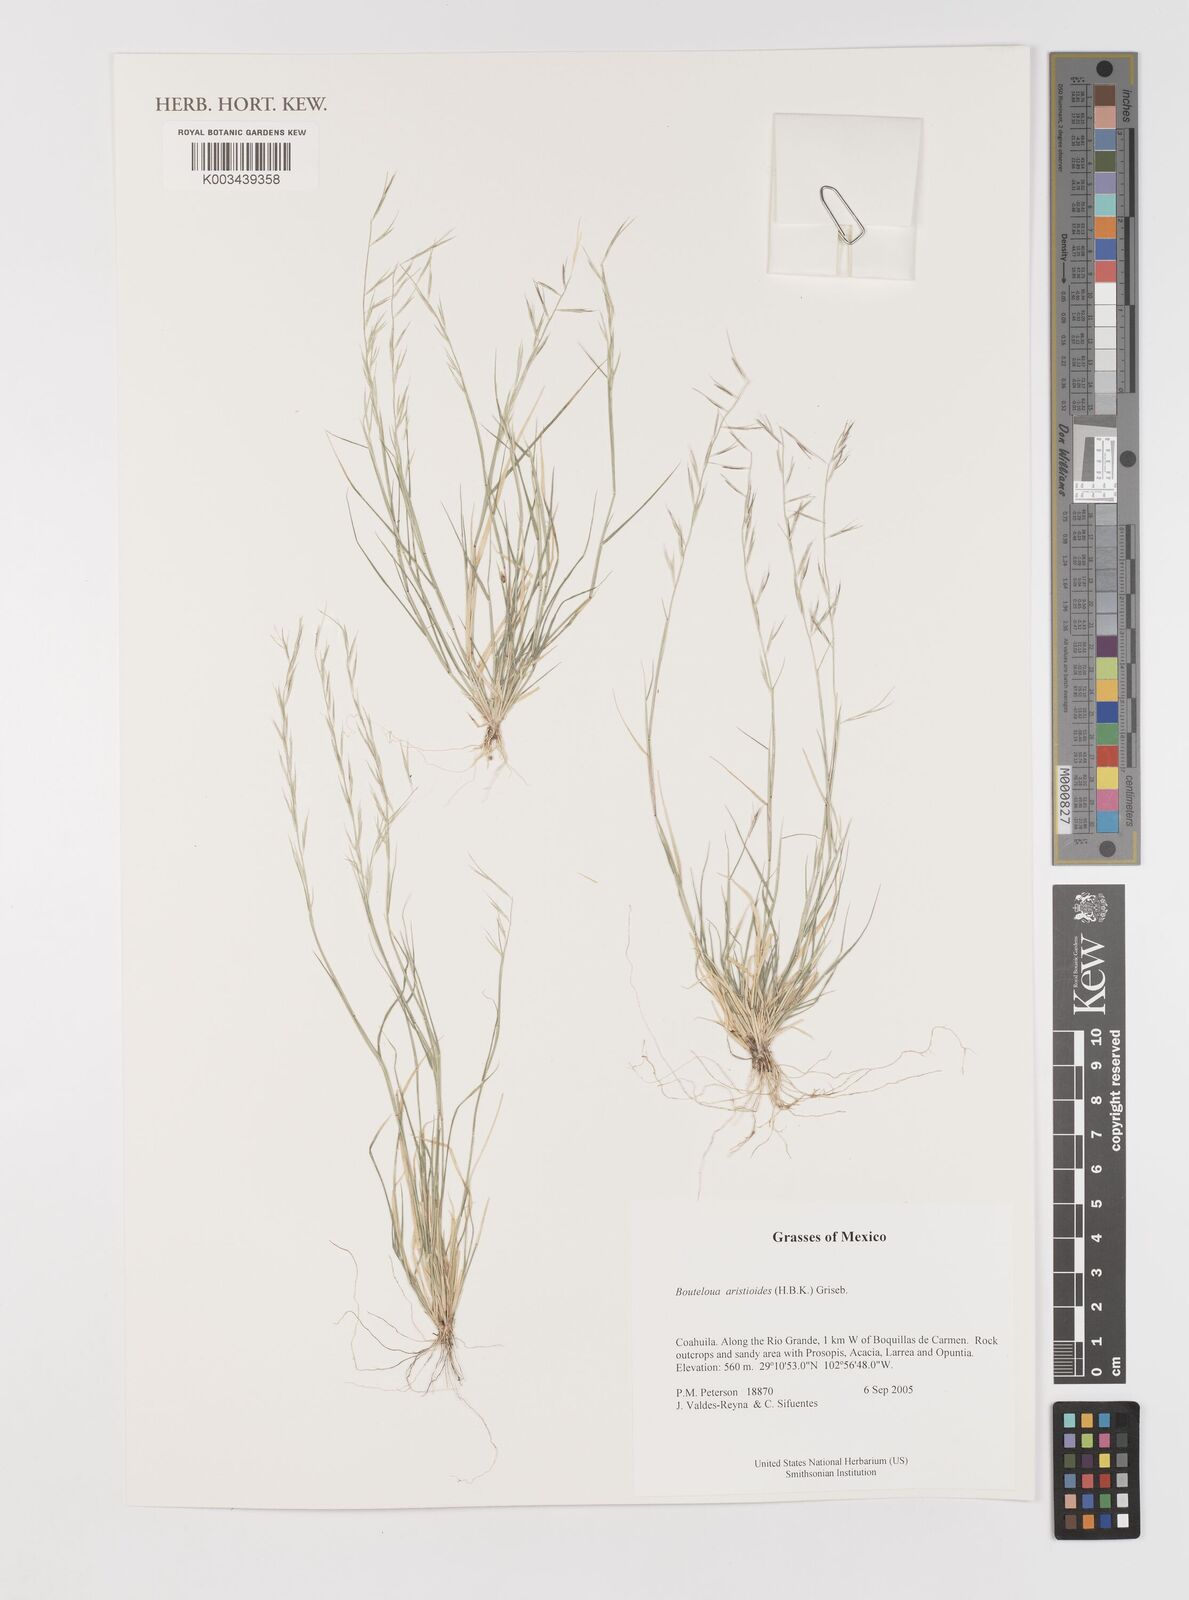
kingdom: Plantae
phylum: Tracheophyta
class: Liliopsida
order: Poales
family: Poaceae
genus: Bouteloua
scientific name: Bouteloua aristidoides
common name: Needle grama
